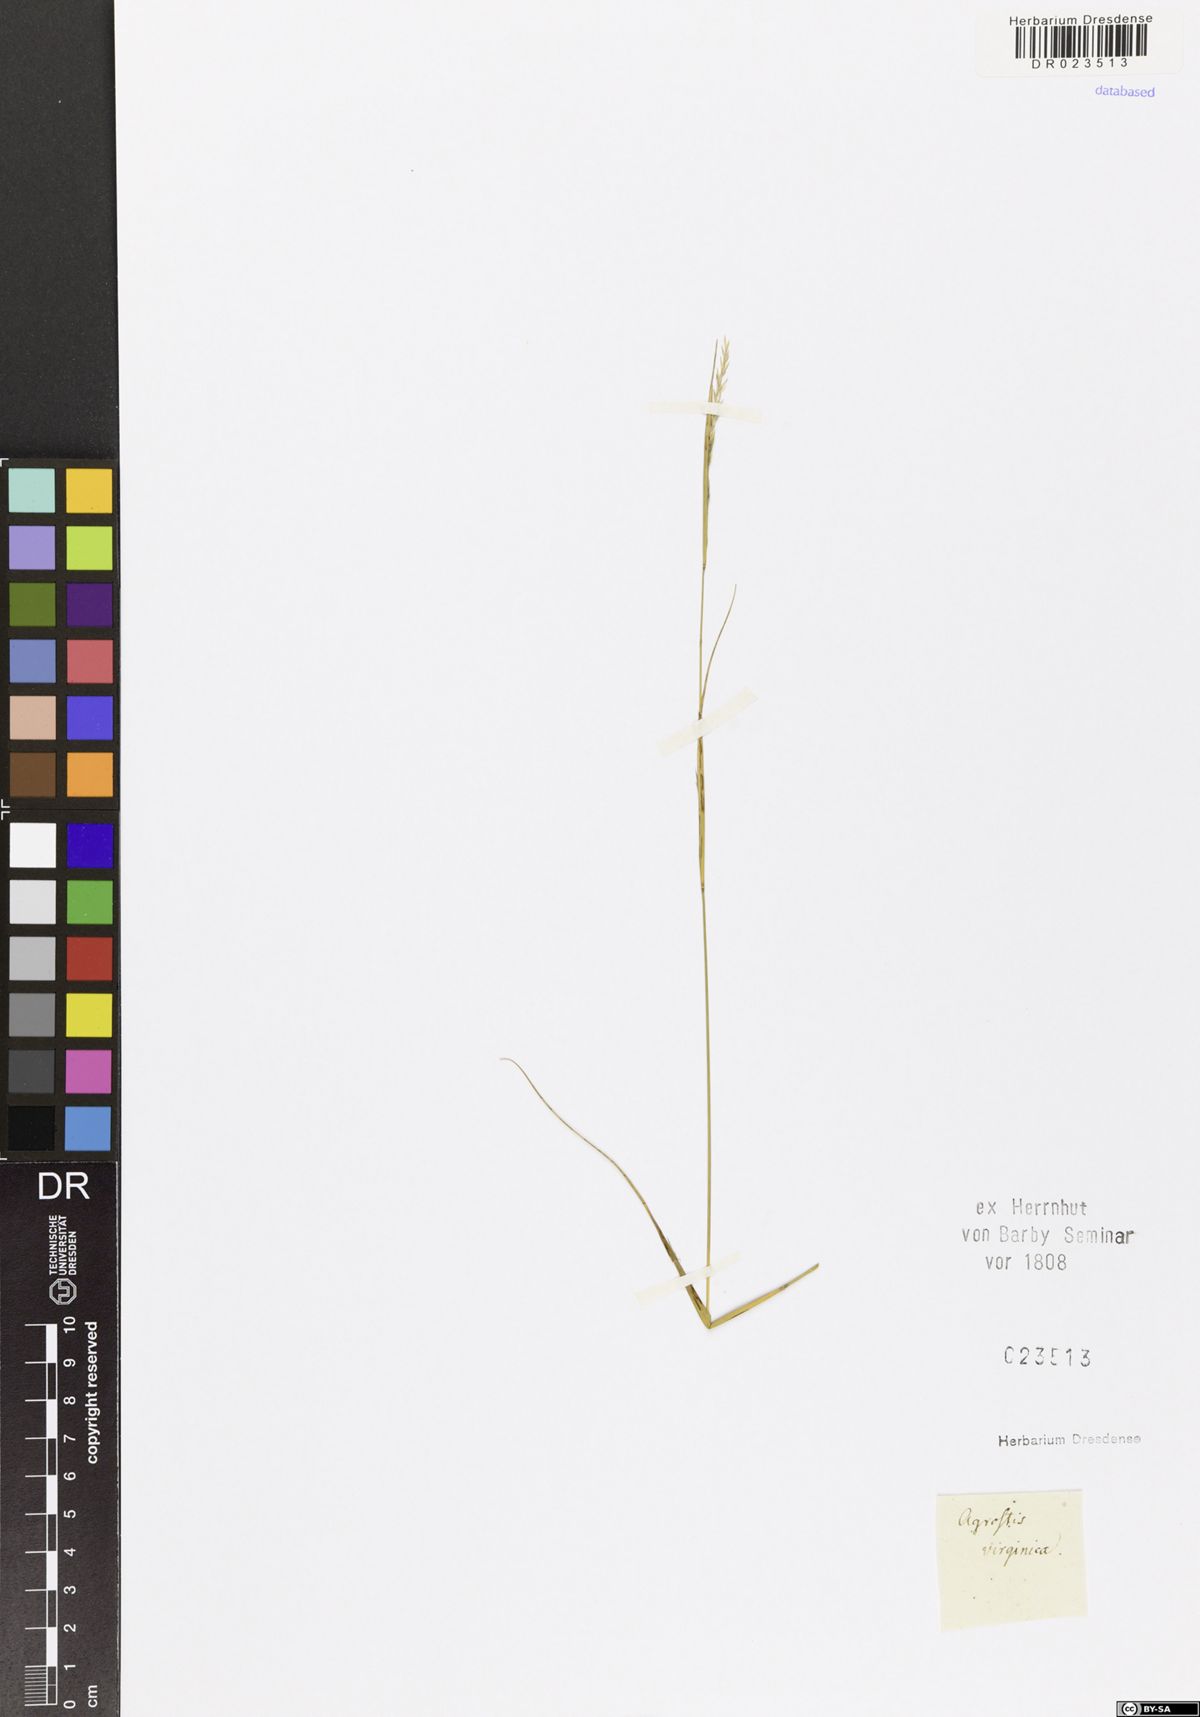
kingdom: Plantae
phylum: Tracheophyta
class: Liliopsida
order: Poales
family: Poaceae
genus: Sporobolus
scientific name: Sporobolus virginicus
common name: Beach dropseed
